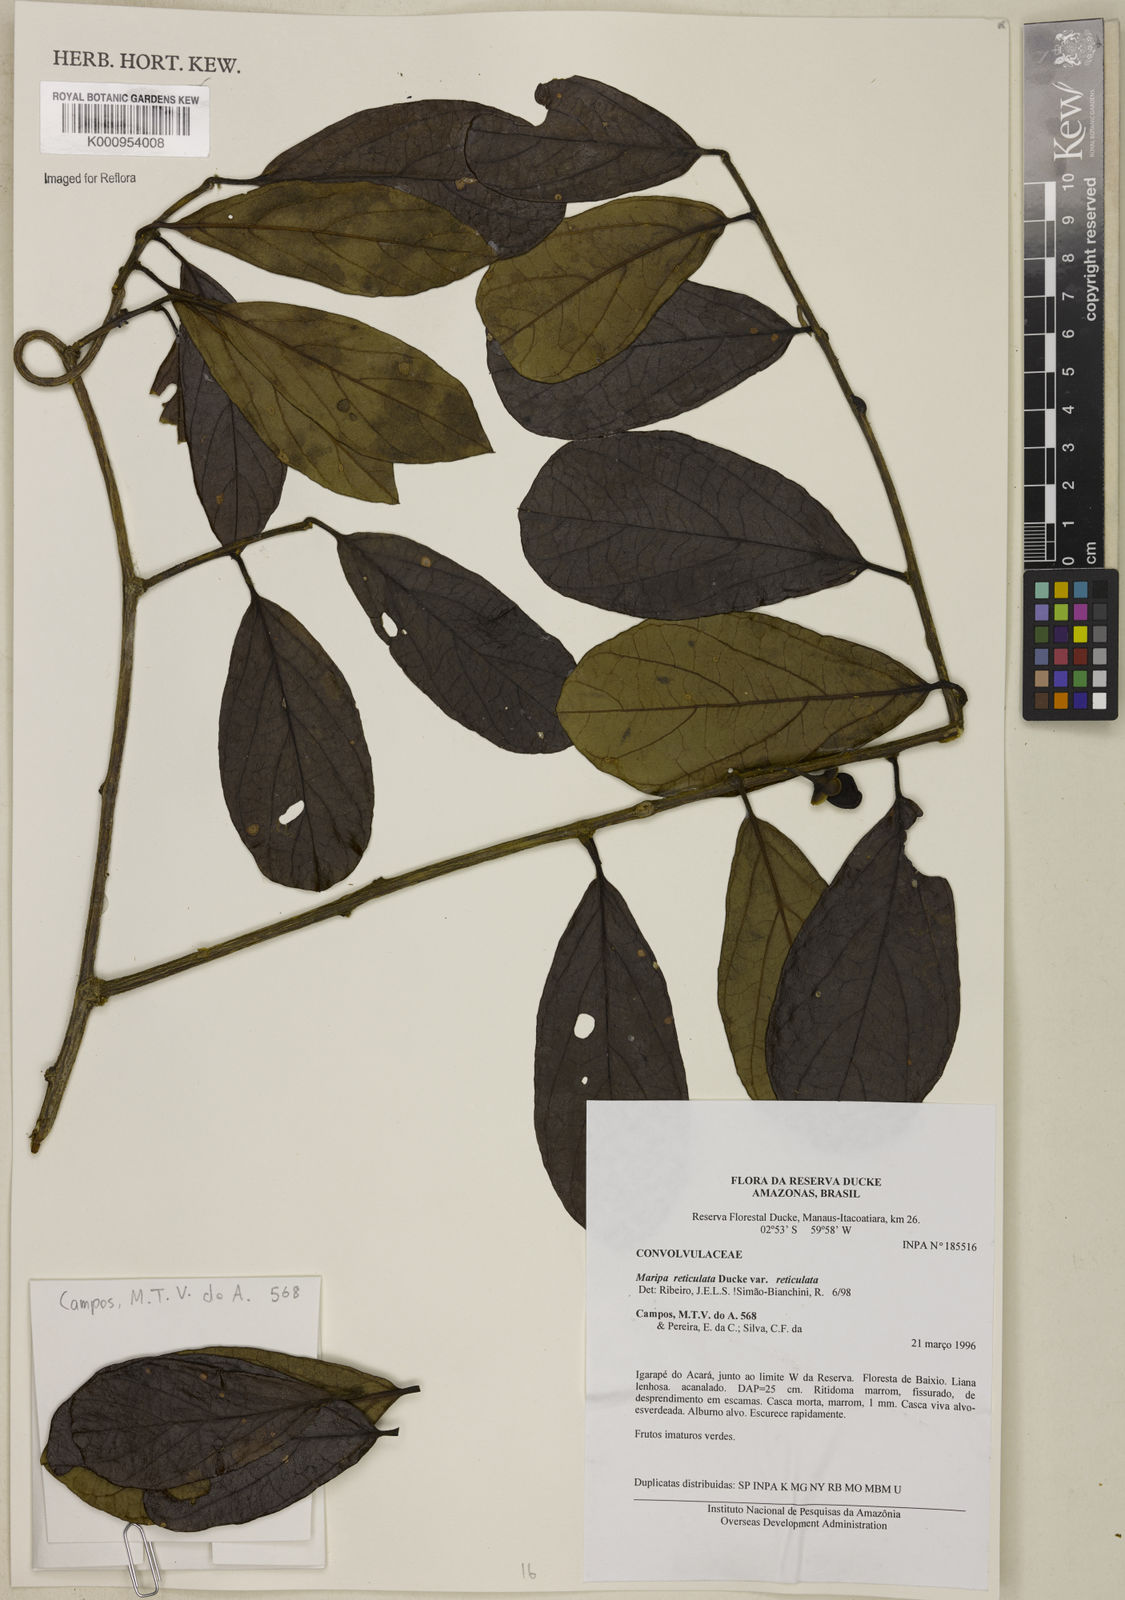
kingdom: Plantae
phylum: Tracheophyta
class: Magnoliopsida
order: Solanales
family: Convolvulaceae
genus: Maripa
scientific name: Maripa reticulata
